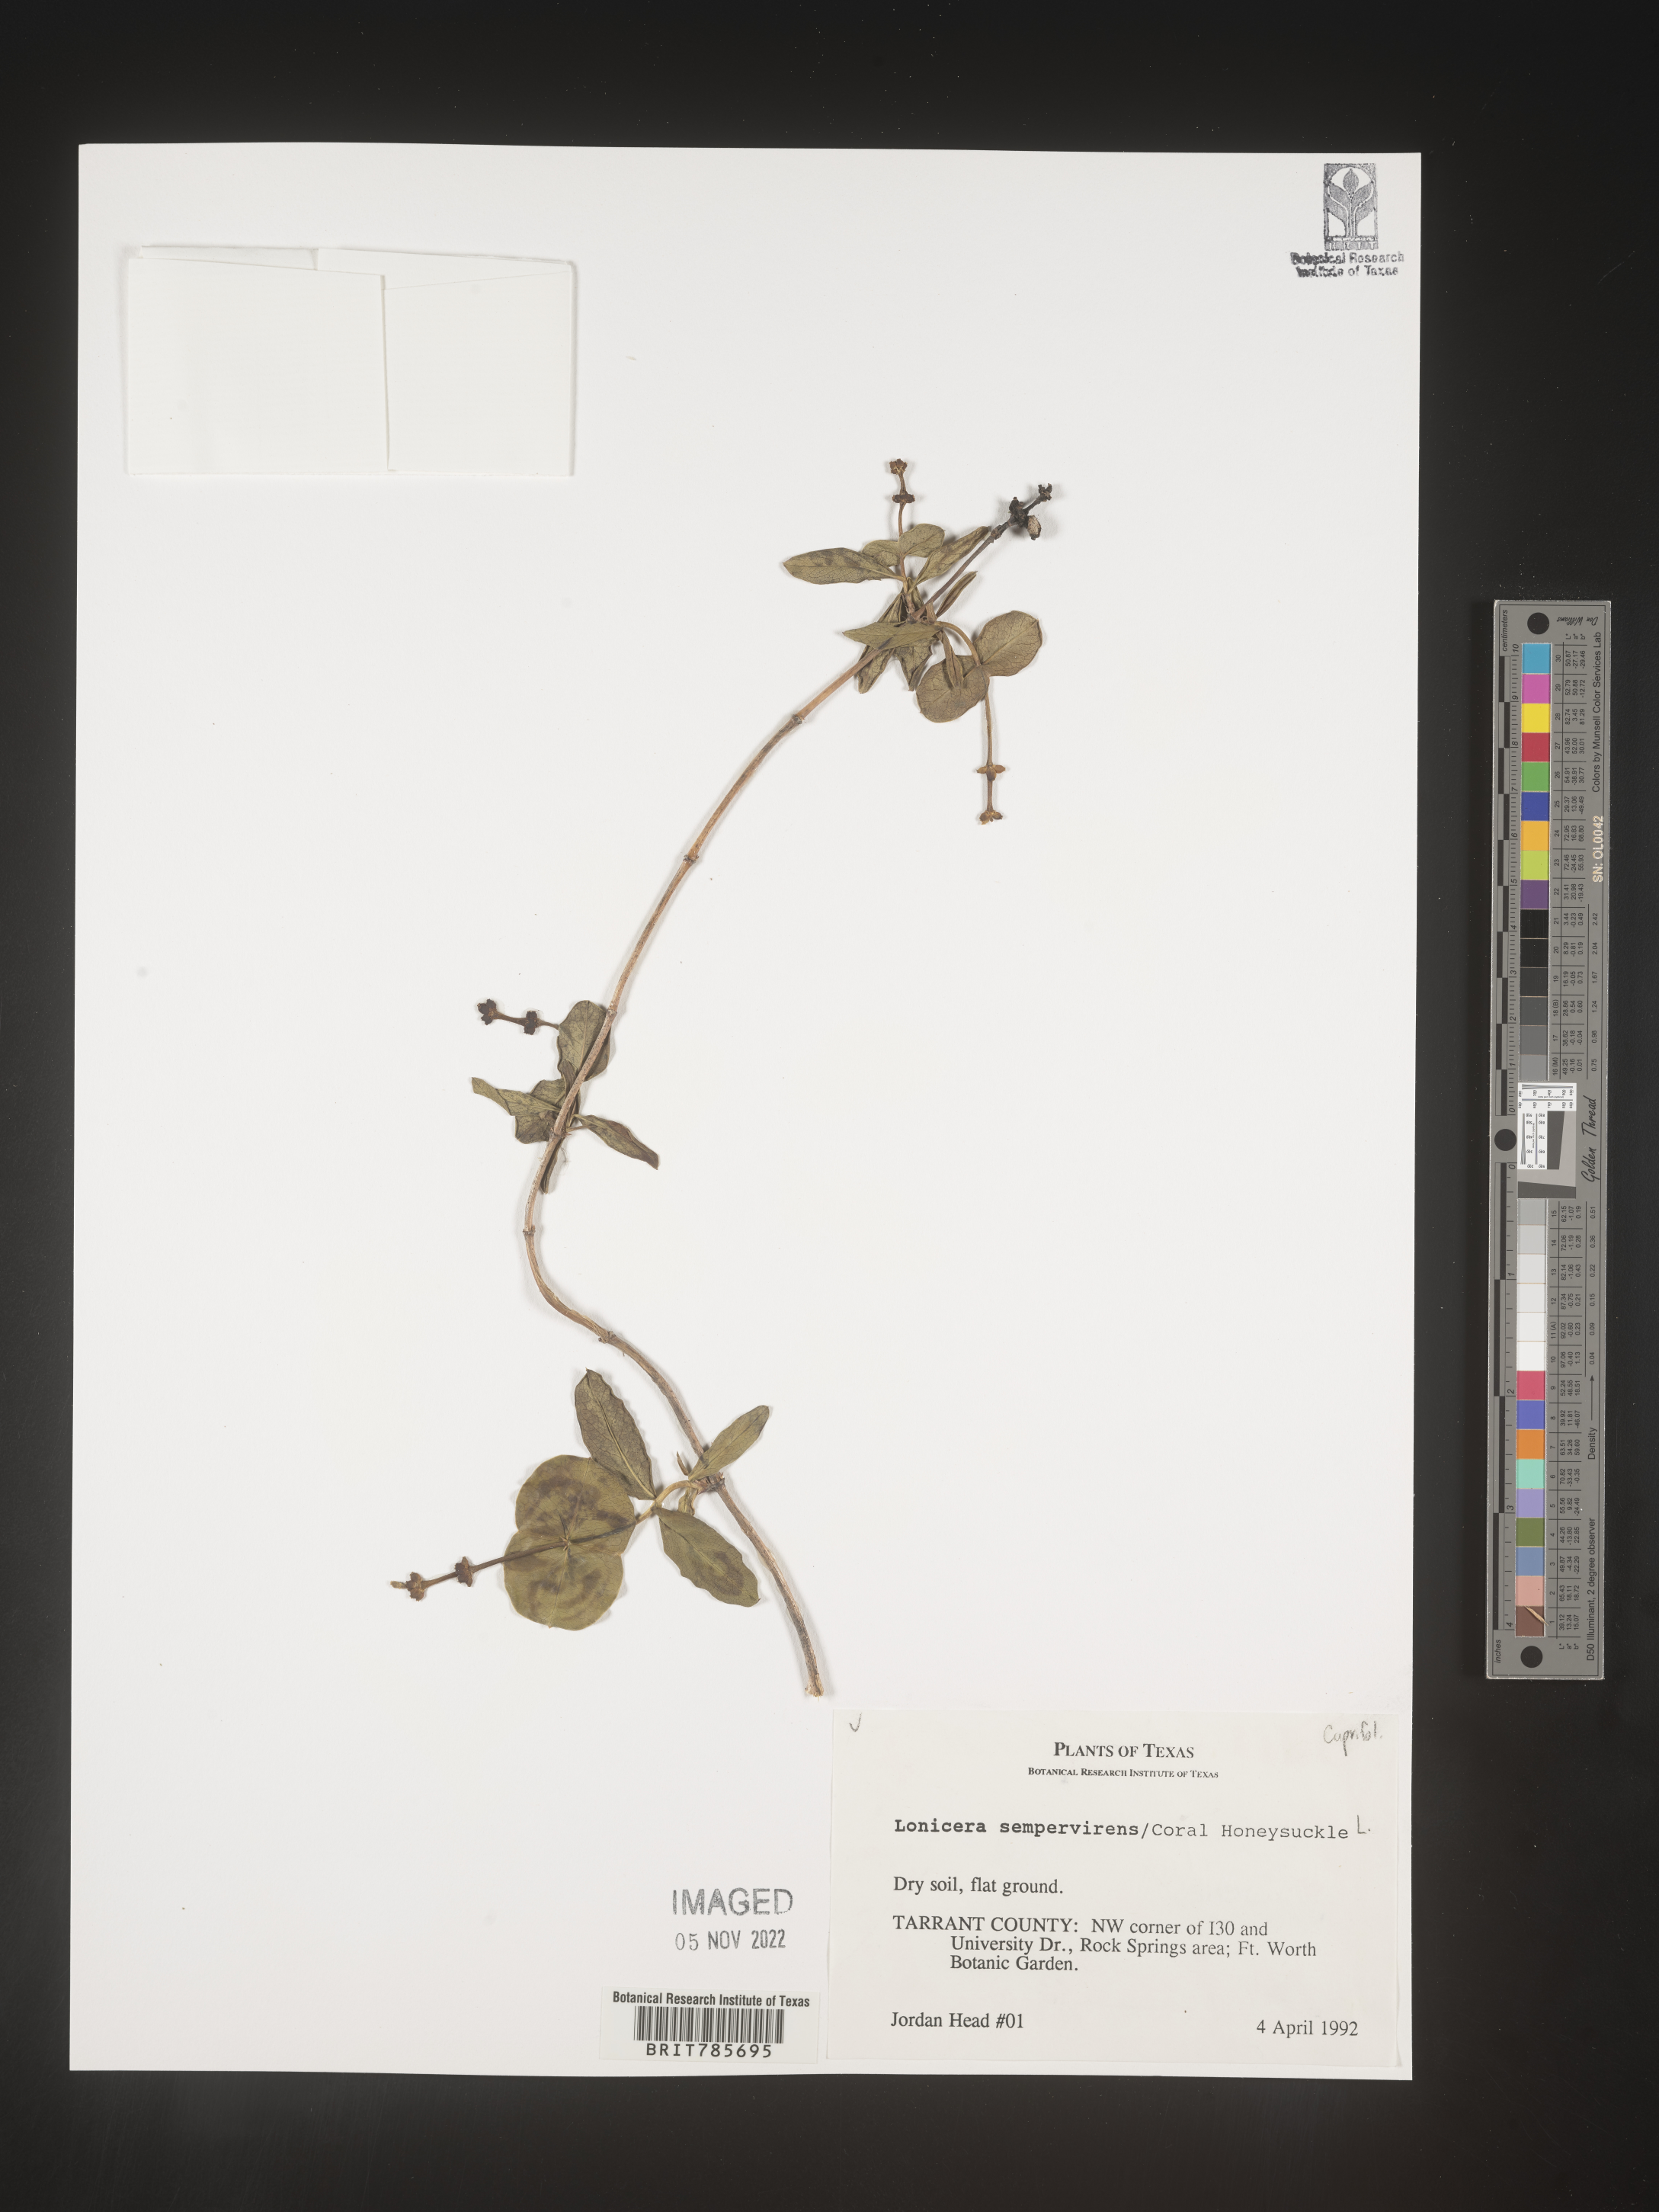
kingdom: Plantae
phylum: Tracheophyta
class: Magnoliopsida
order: Dipsacales
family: Caprifoliaceae
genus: Lonicera
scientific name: Lonicera
